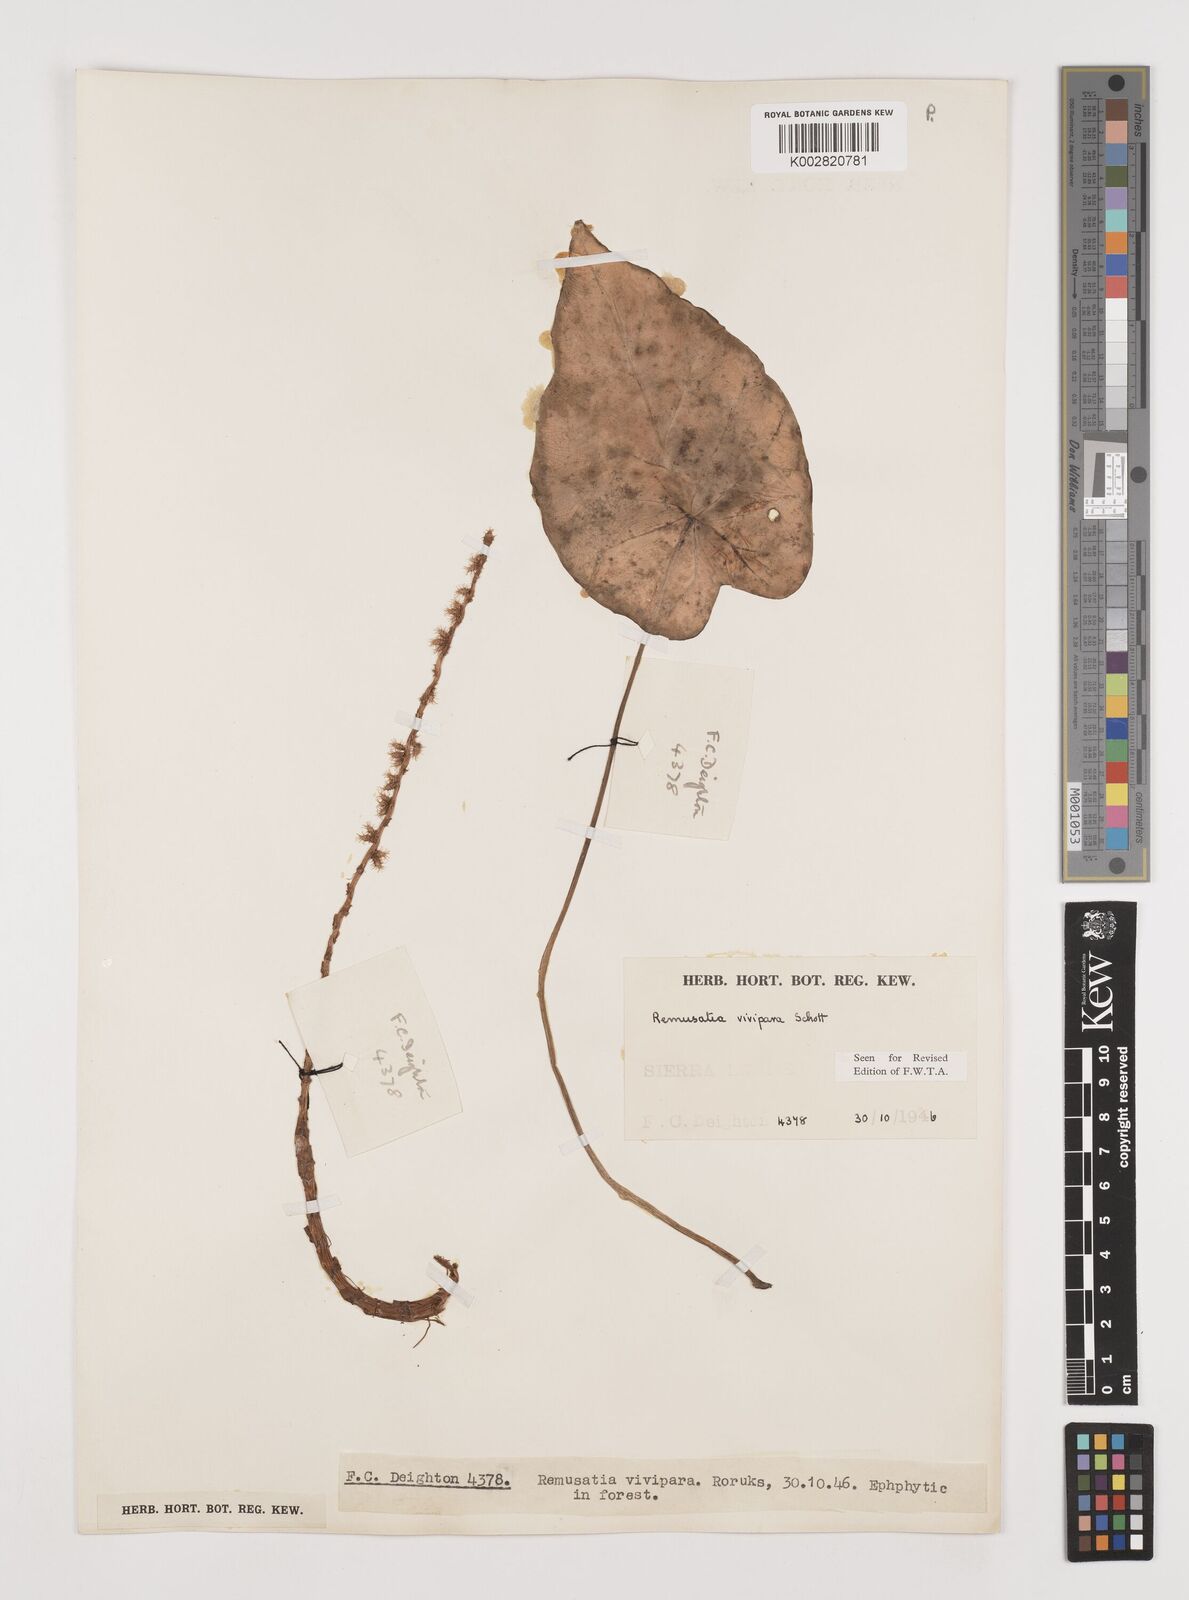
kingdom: Plantae
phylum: Tracheophyta
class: Liliopsida
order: Alismatales
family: Araceae
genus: Remusatia
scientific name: Remusatia vivipara
